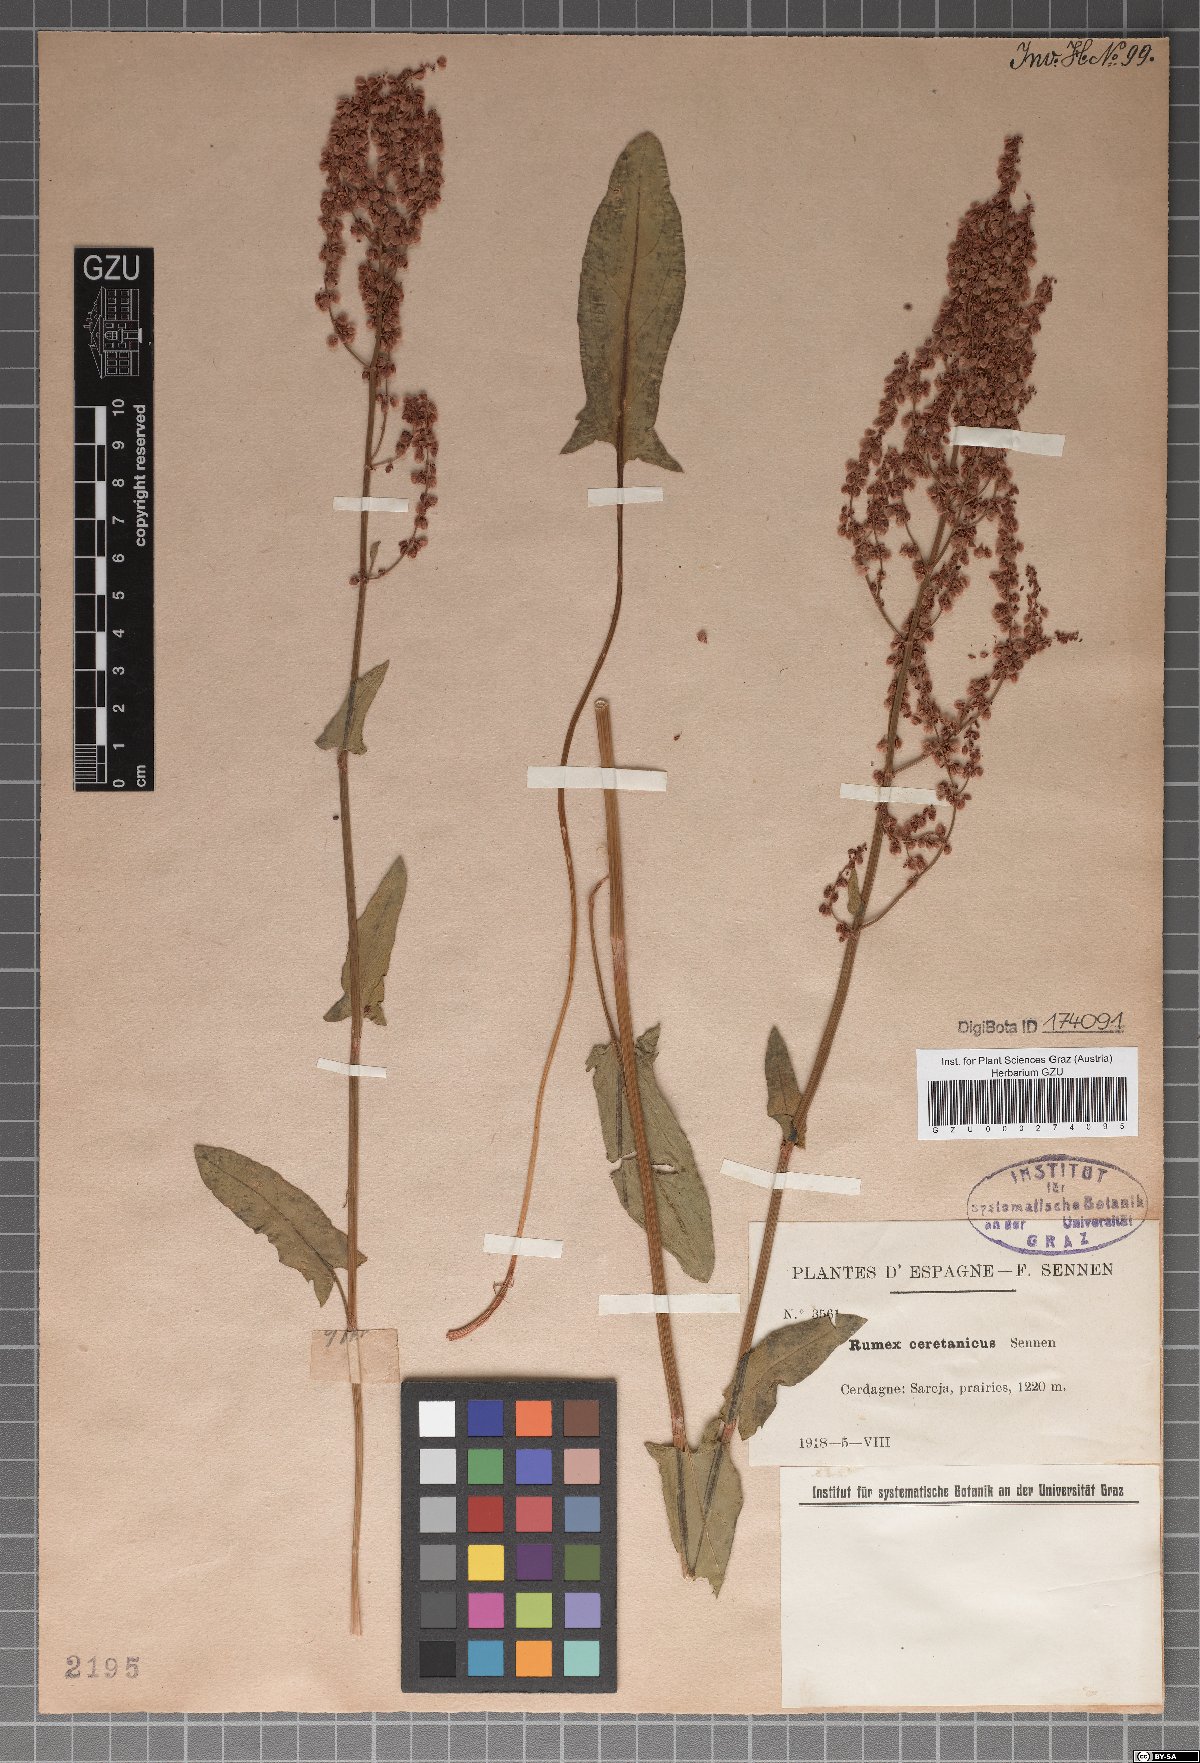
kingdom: Plantae
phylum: Tracheophyta
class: Magnoliopsida
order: Caryophyllales
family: Polygonaceae
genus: Rumex
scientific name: Rumex ceretanus
